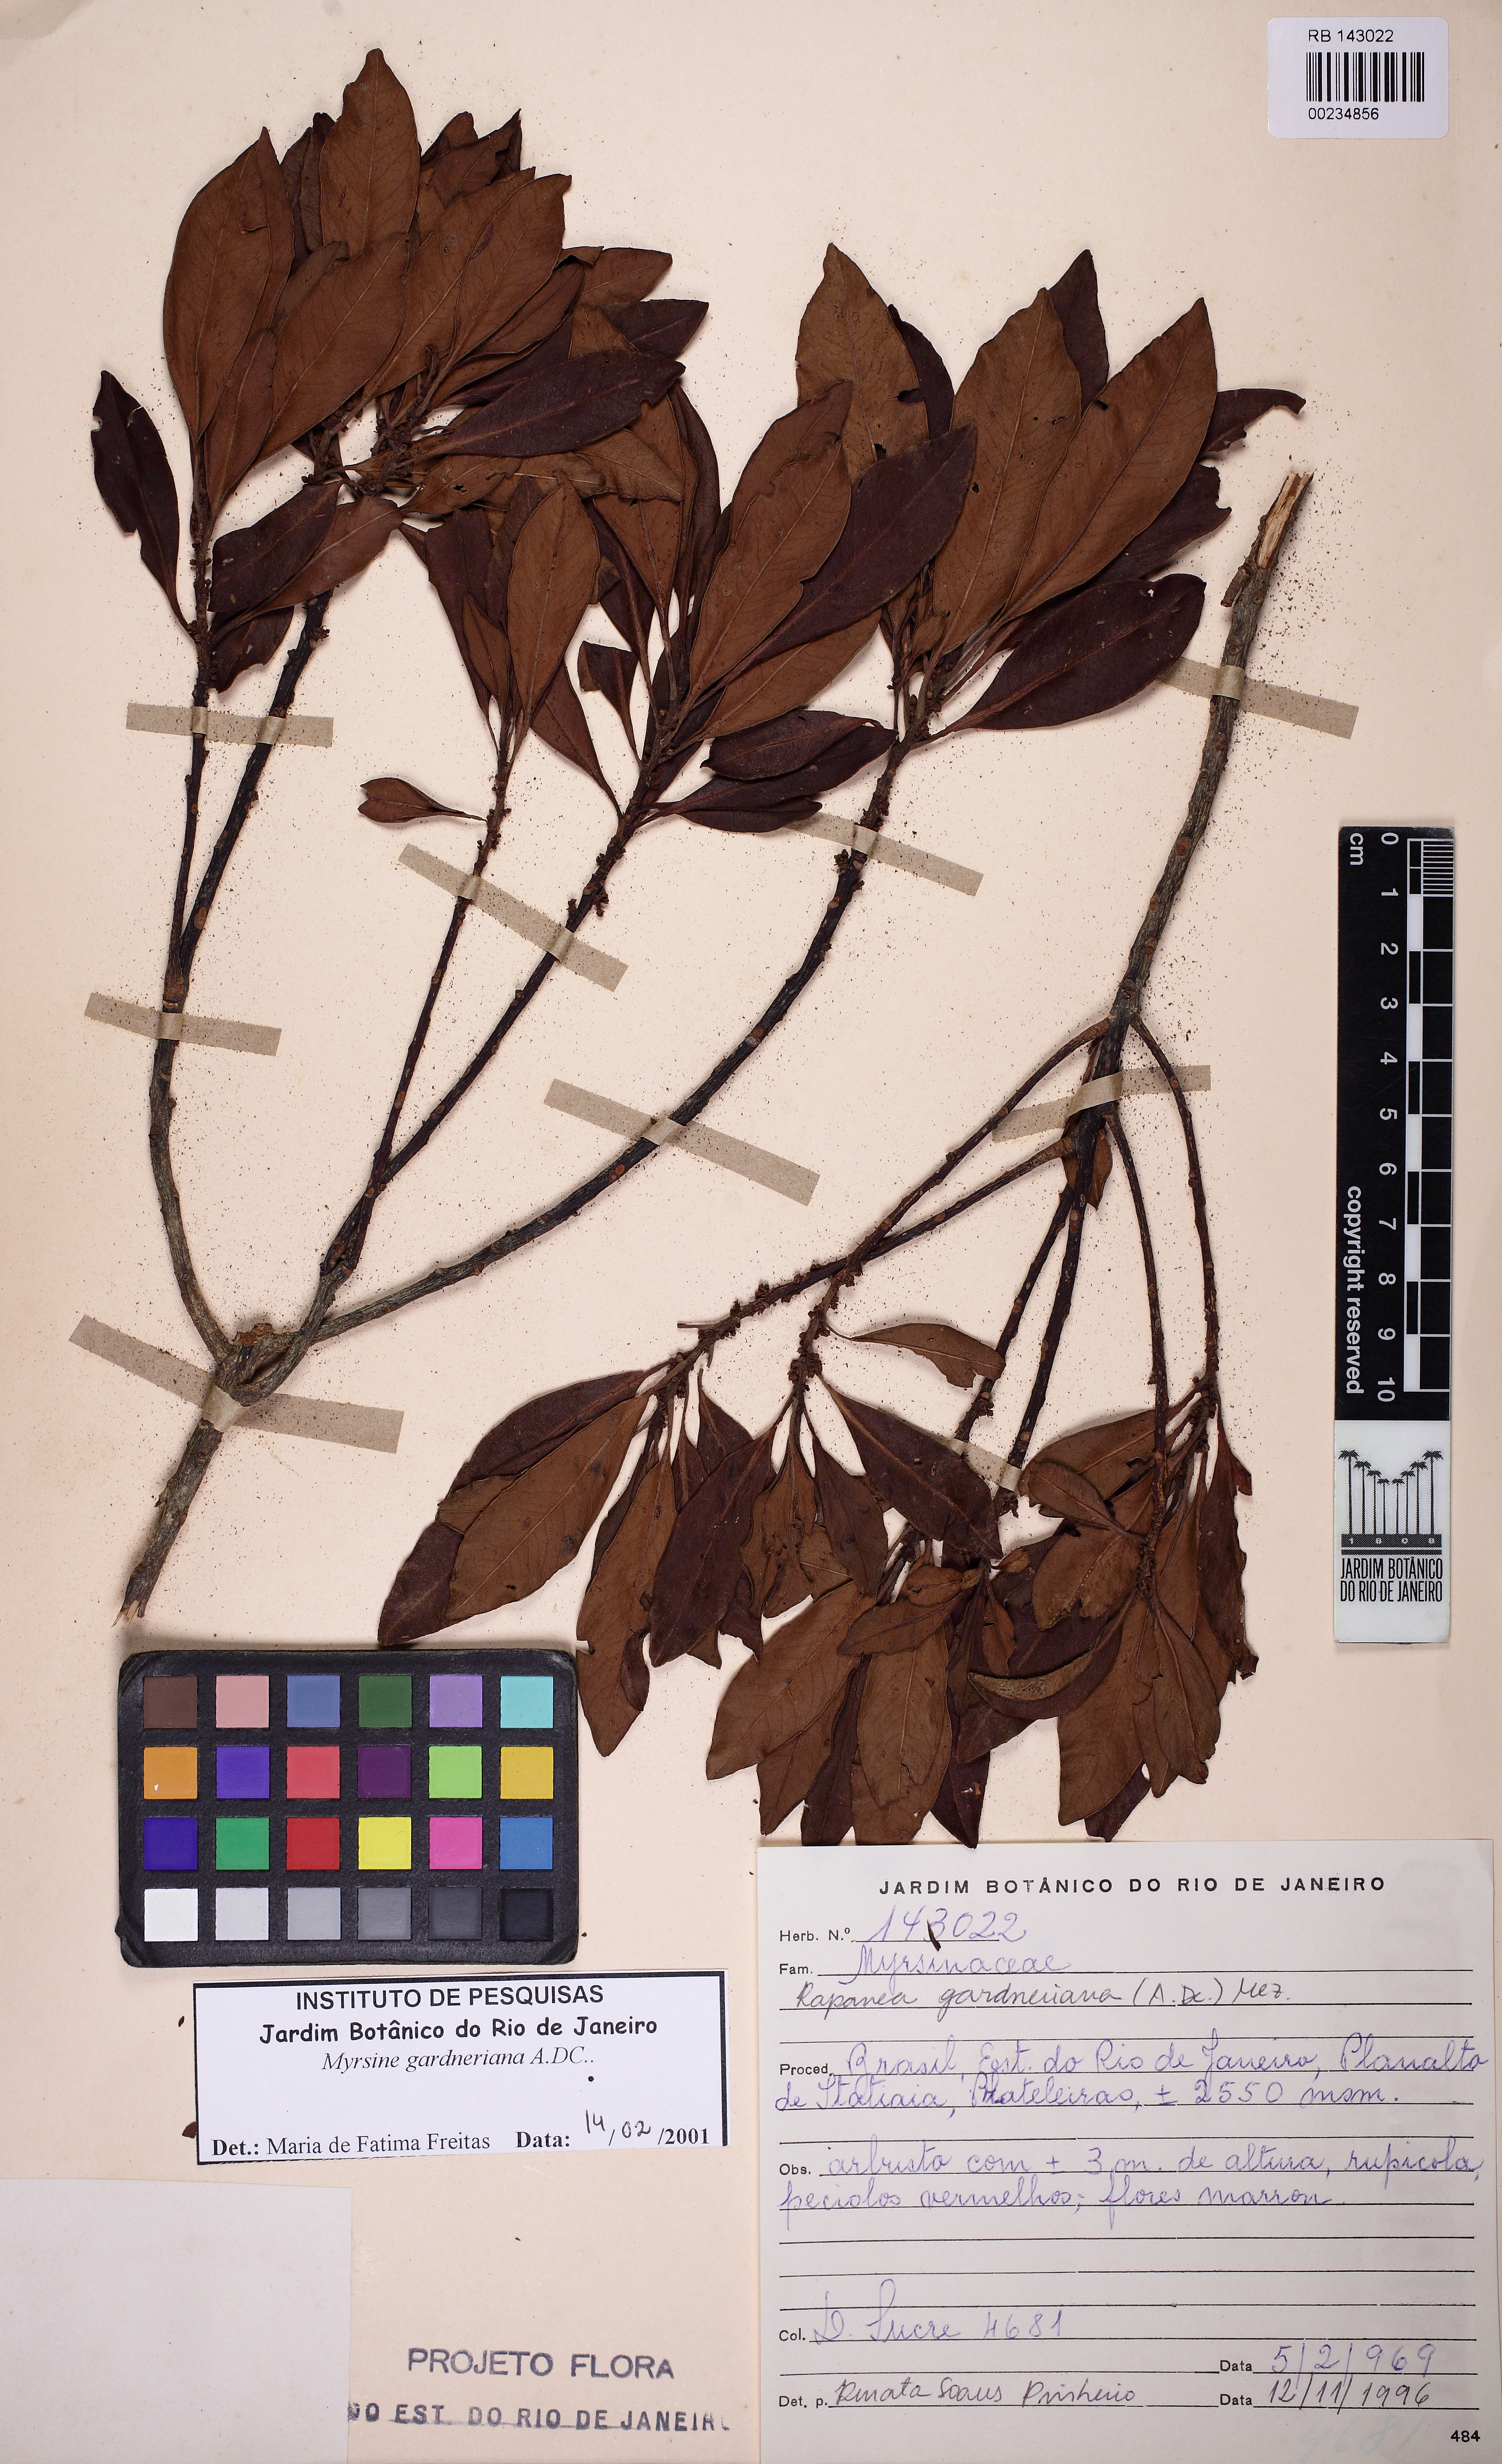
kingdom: Plantae
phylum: Tracheophyta
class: Magnoliopsida
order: Ericales
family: Primulaceae
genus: Myrsine
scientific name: Myrsine gardneriana
